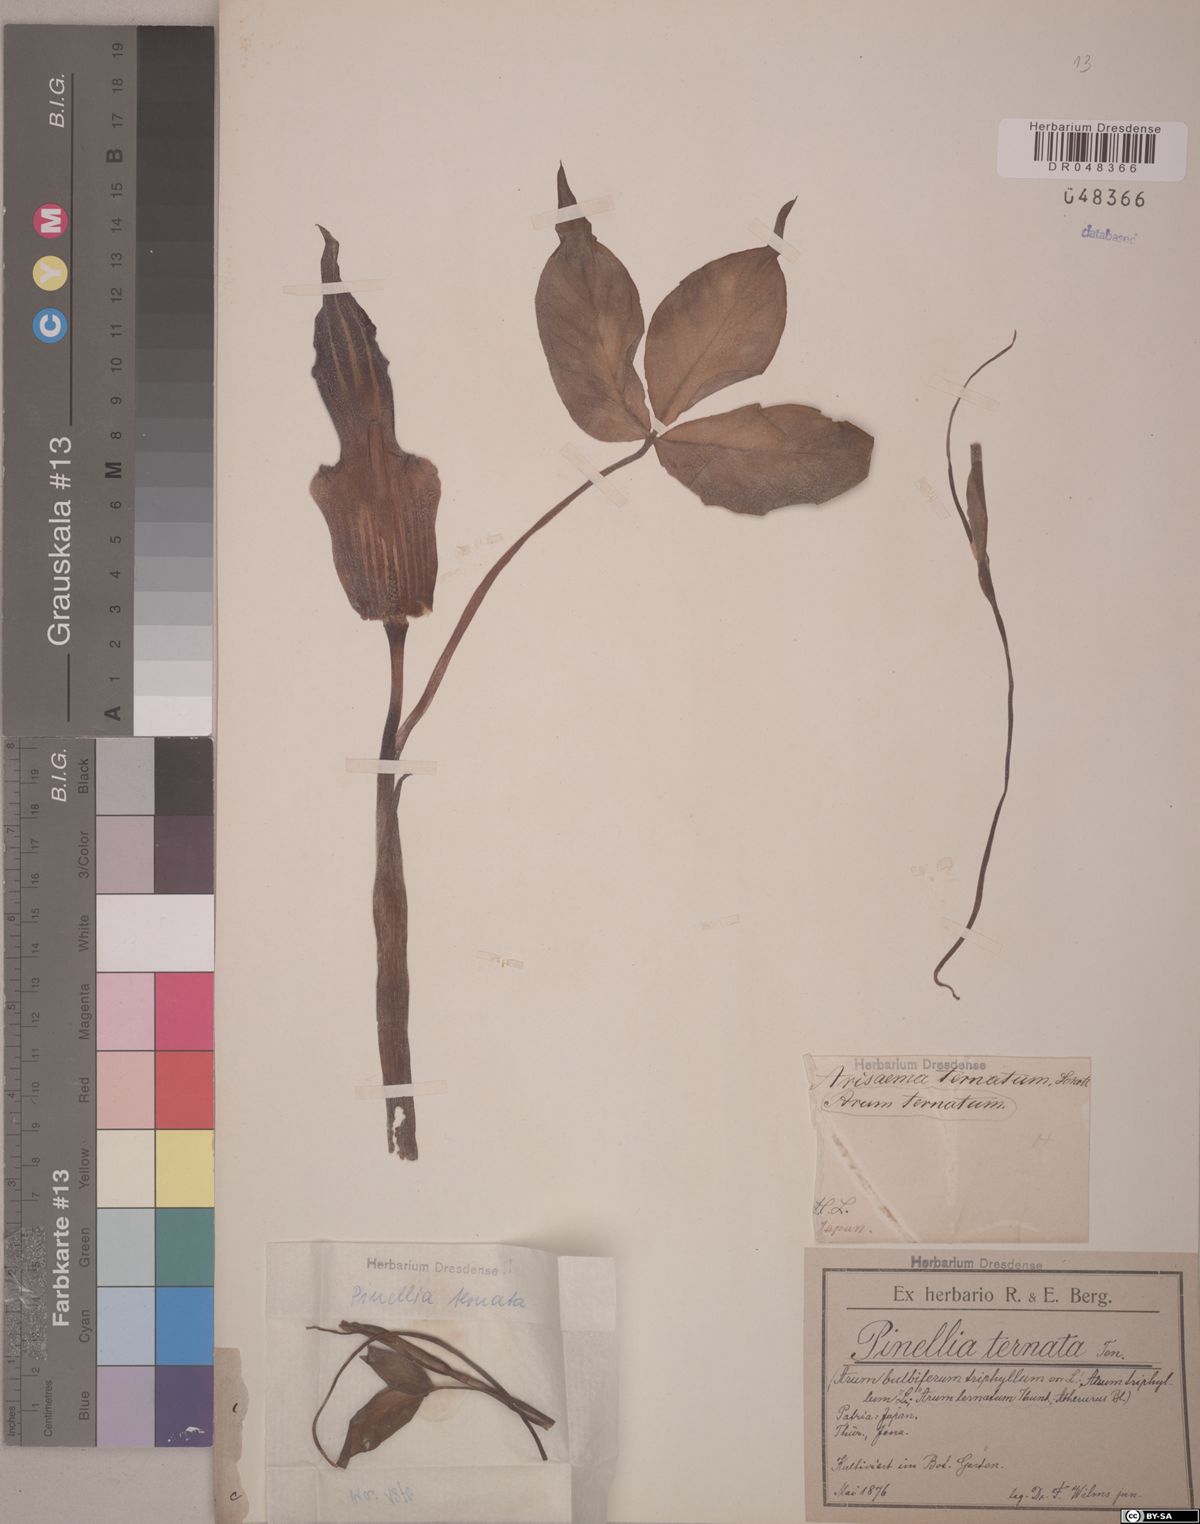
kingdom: Plantae
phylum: Tracheophyta
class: Liliopsida
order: Alismatales
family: Araceae
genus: Pinellia
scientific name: Pinellia ternata
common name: Pinellia
